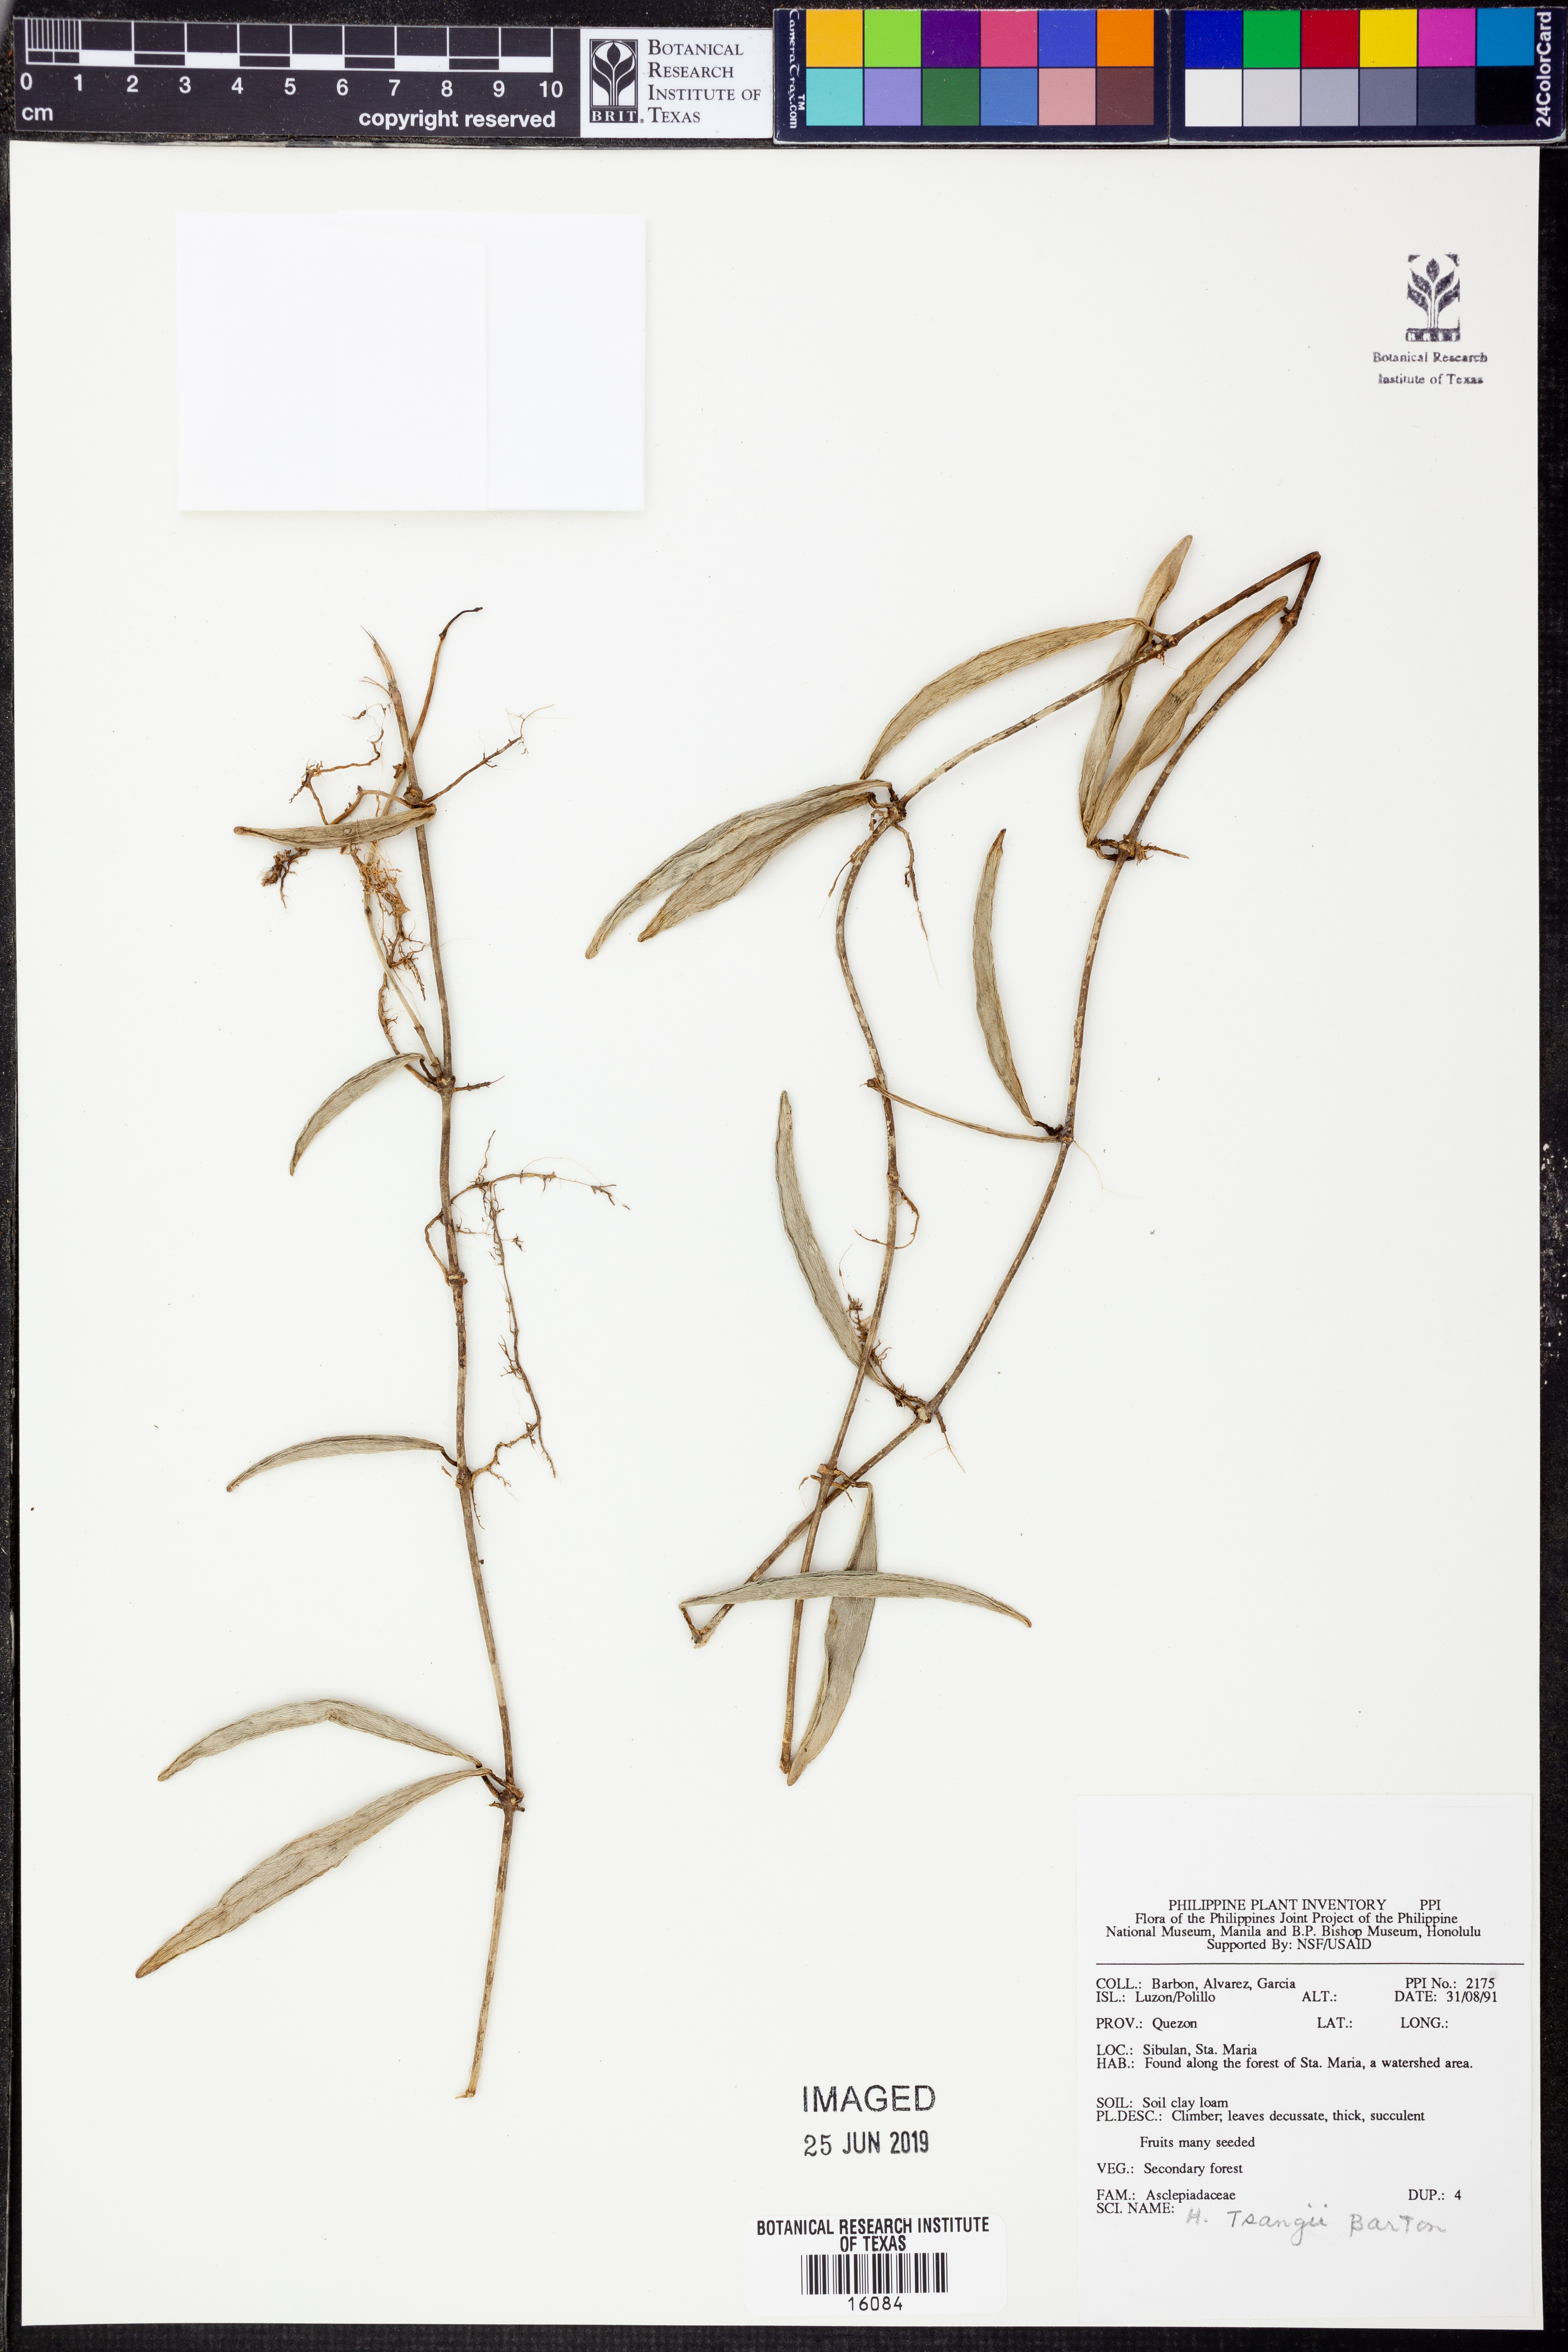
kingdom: Plantae
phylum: Tracheophyta
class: Magnoliopsida
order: Gentianales
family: Apocynaceae
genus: Hoya
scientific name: Hoya tsangii
